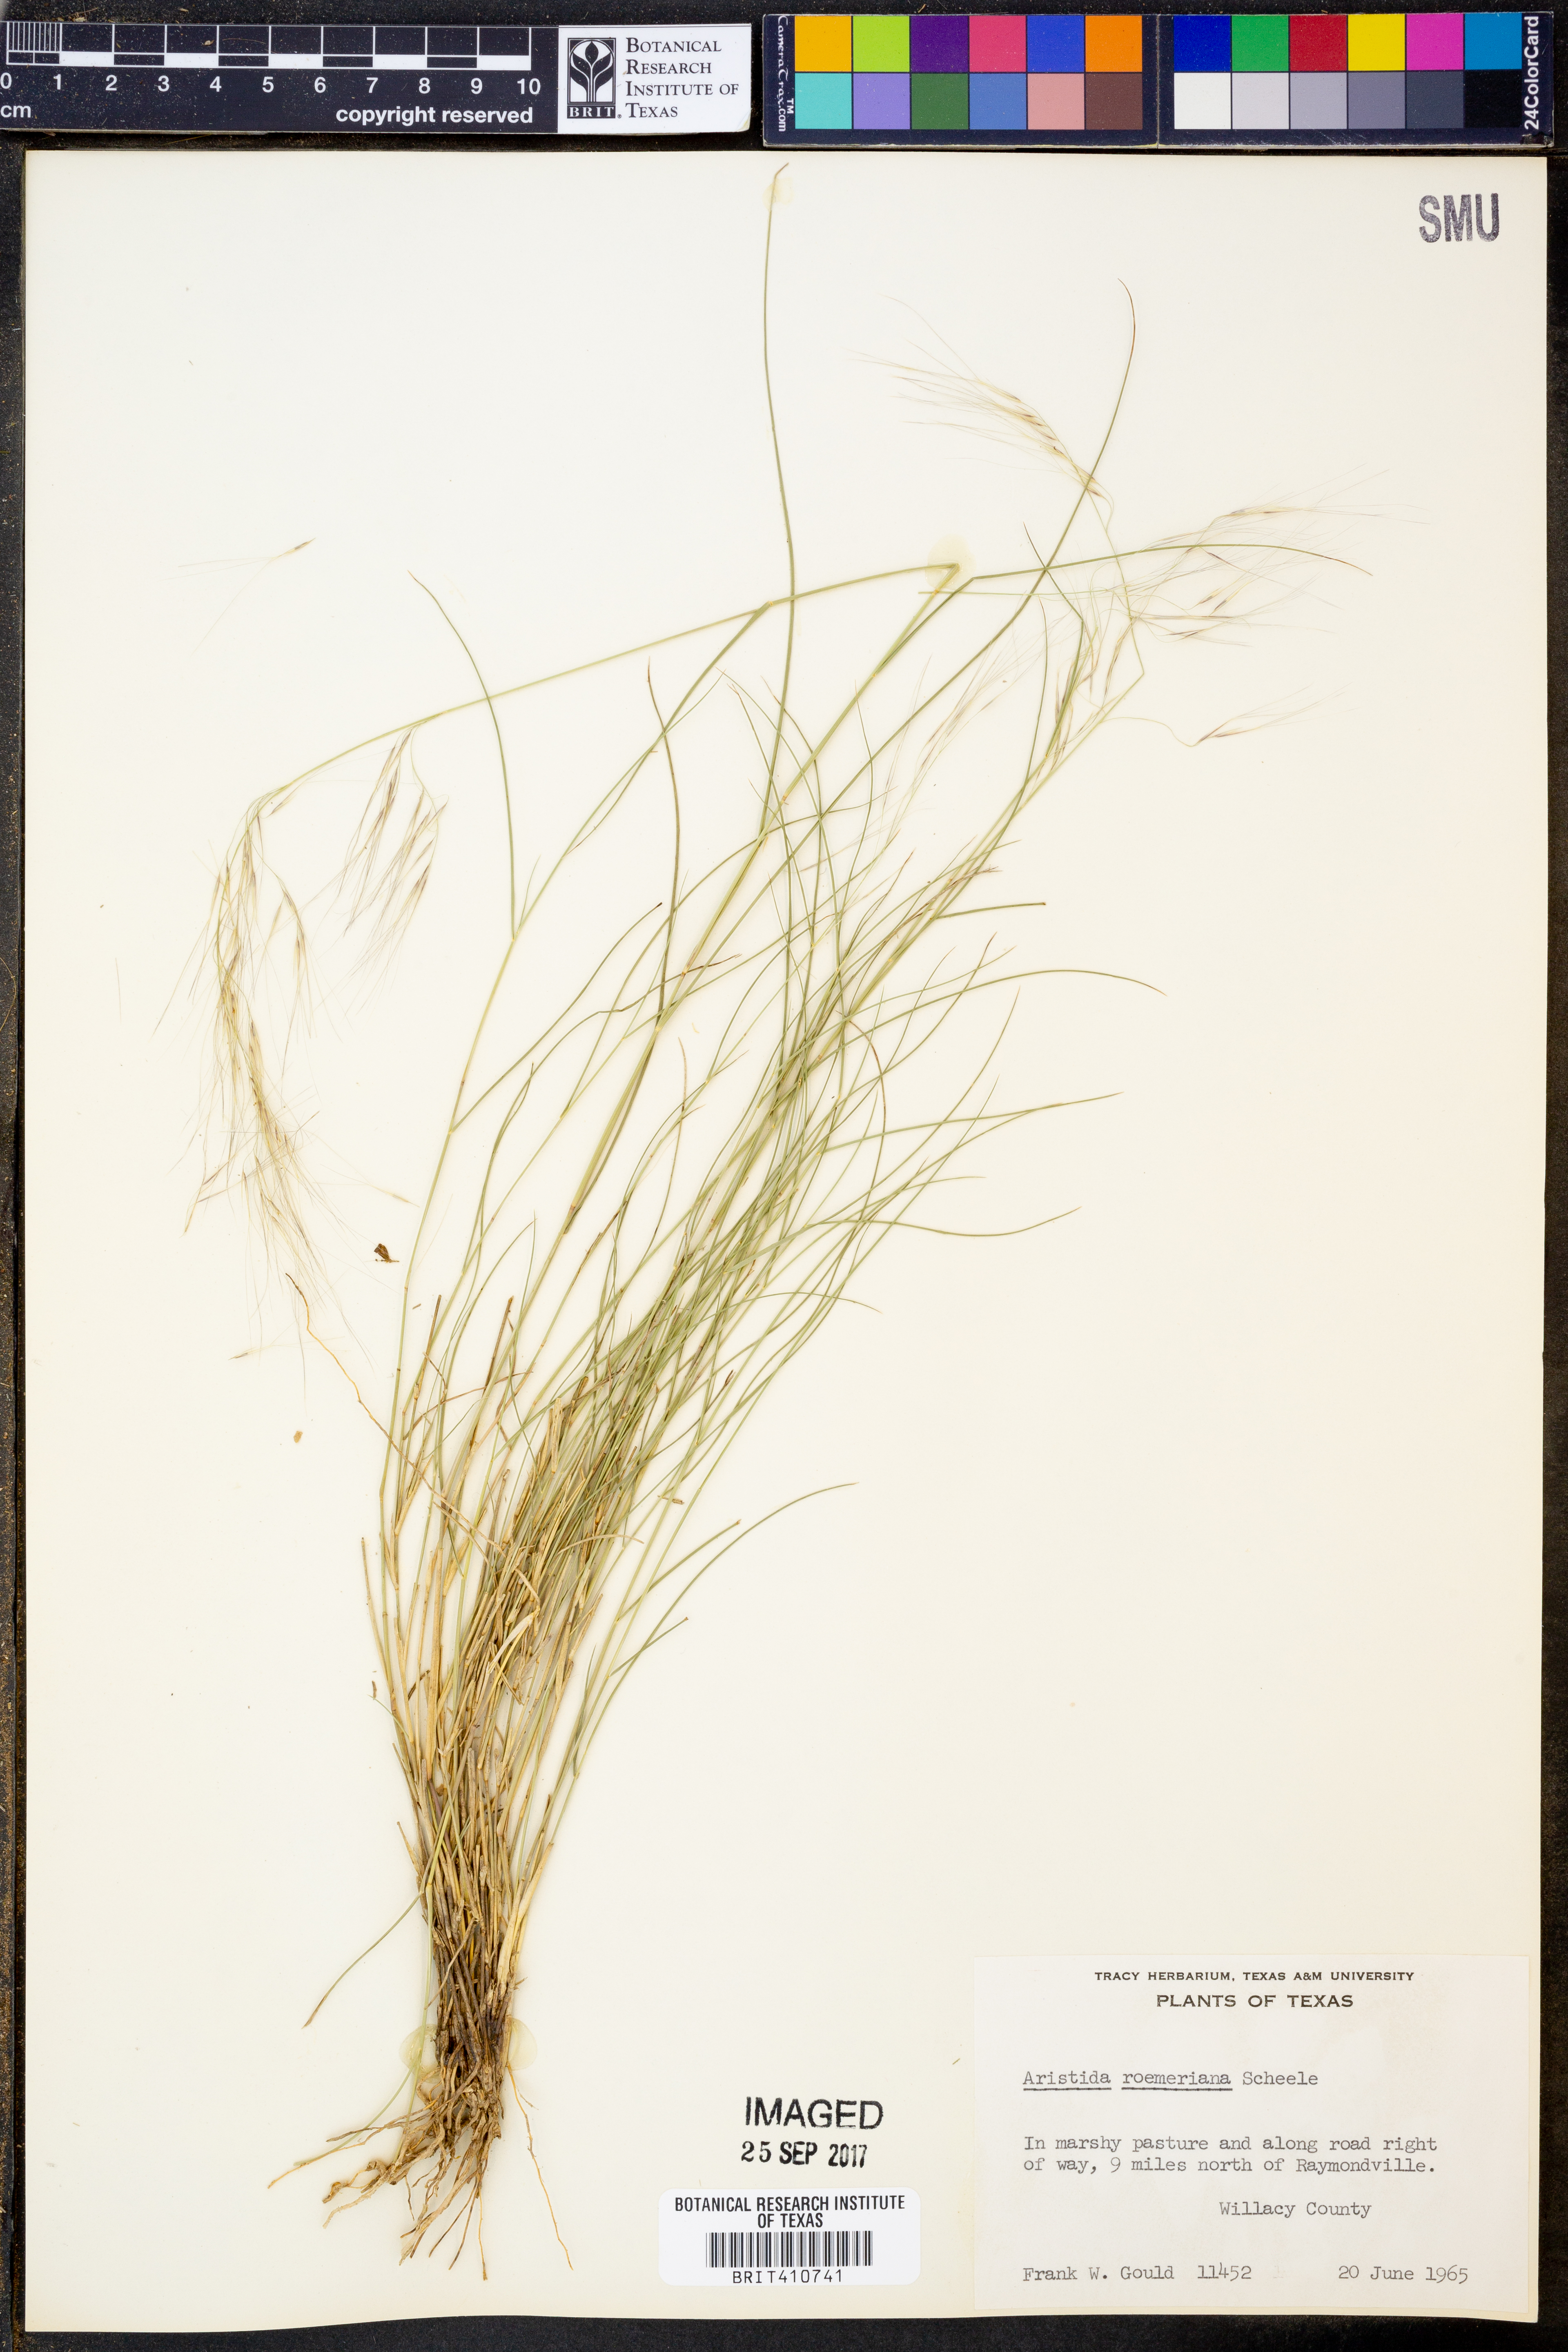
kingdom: Plantae
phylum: Tracheophyta
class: Liliopsida
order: Poales
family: Poaceae
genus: Aristida
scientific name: Aristida purpurea
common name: Purple threeawn
